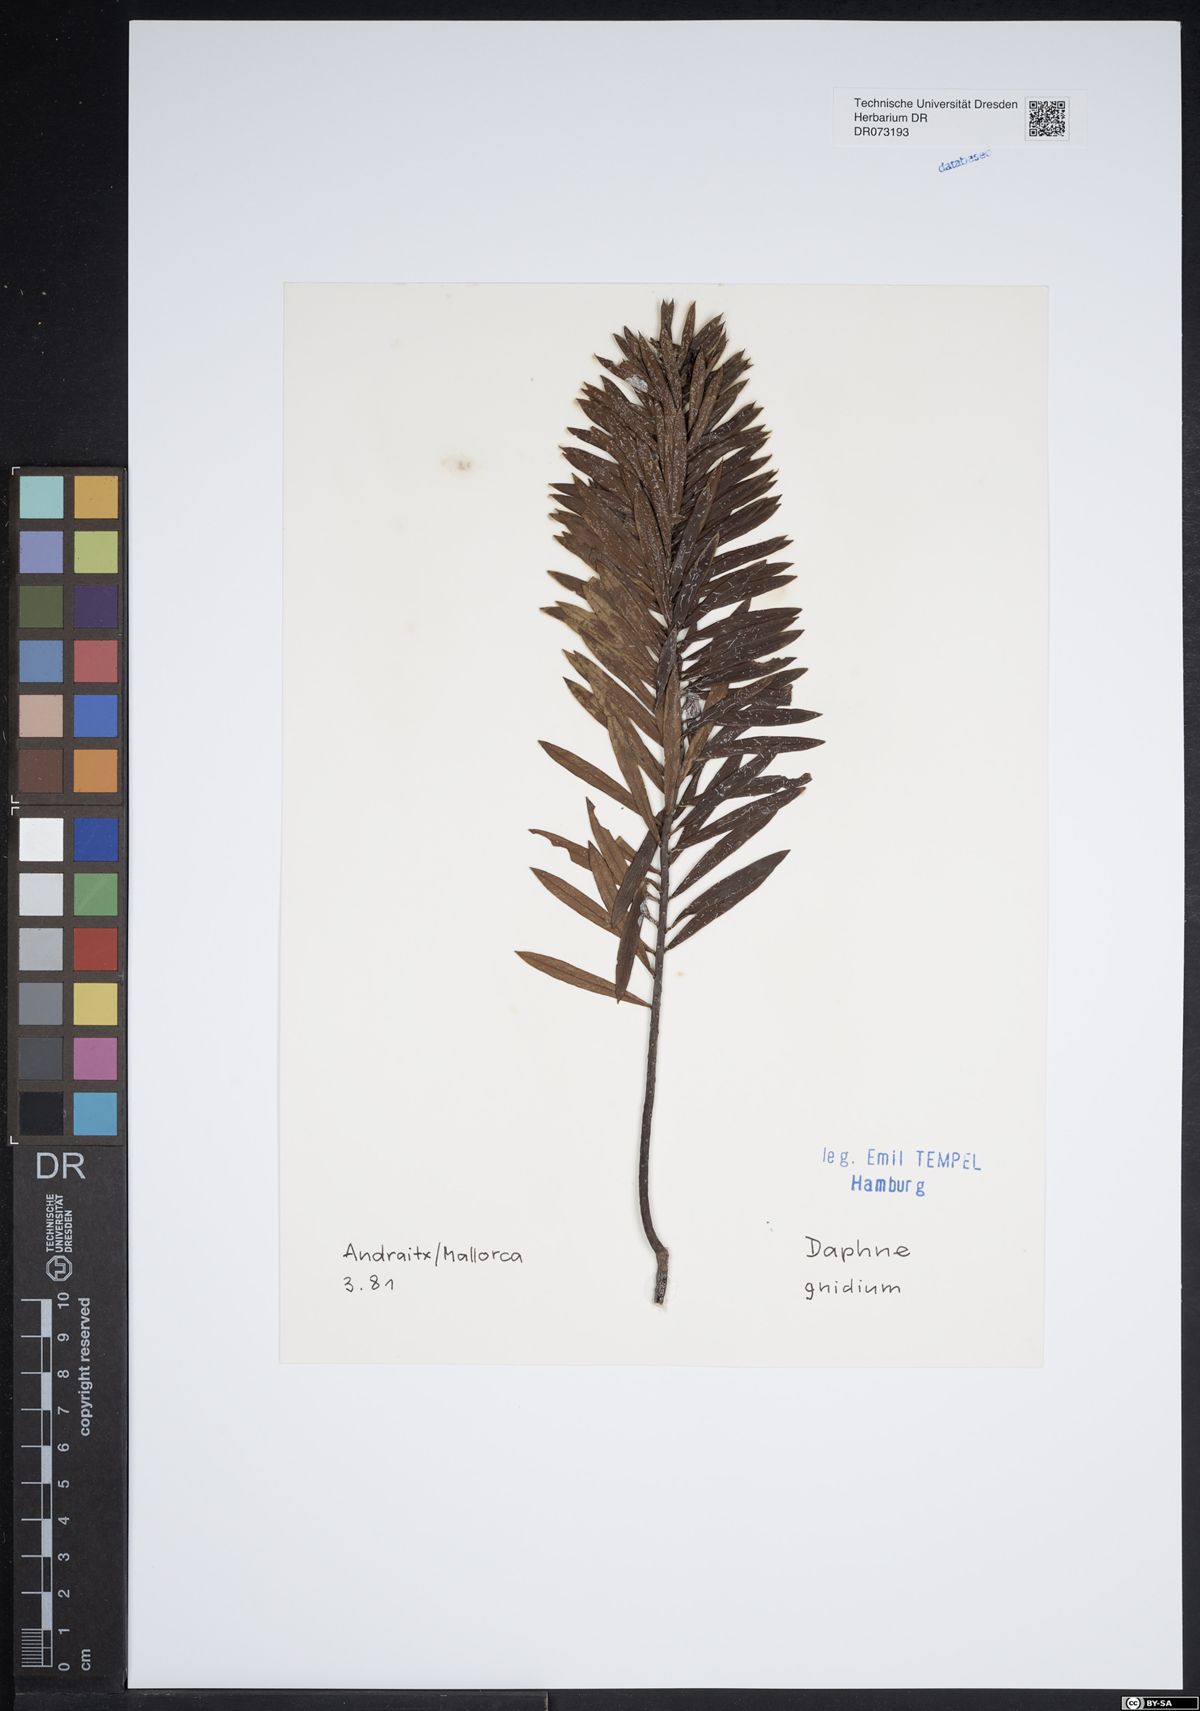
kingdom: Plantae
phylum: Tracheophyta
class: Magnoliopsida
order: Malvales
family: Thymelaeaceae
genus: Daphne
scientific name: Daphne gnidium
